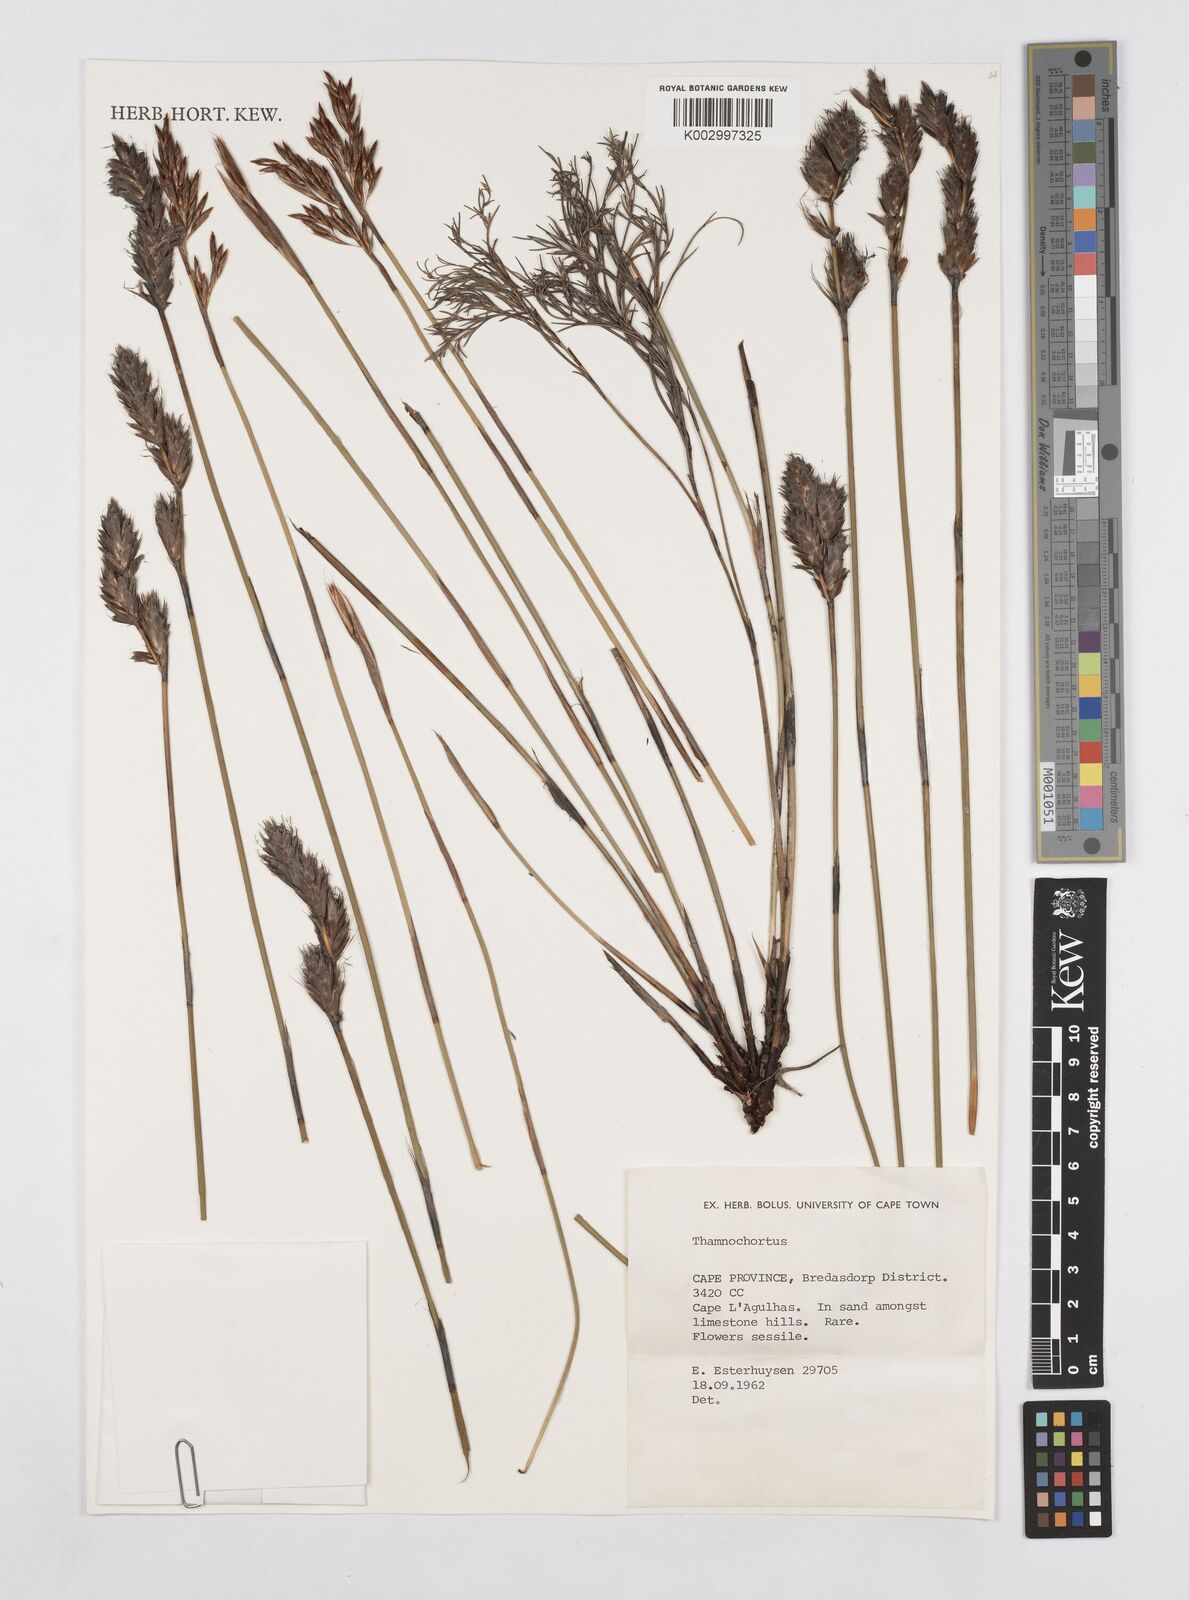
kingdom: Plantae
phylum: Tracheophyta
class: Liliopsida
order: Poales
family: Restionaceae
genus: Thamnochortus
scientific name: Thamnochortus
